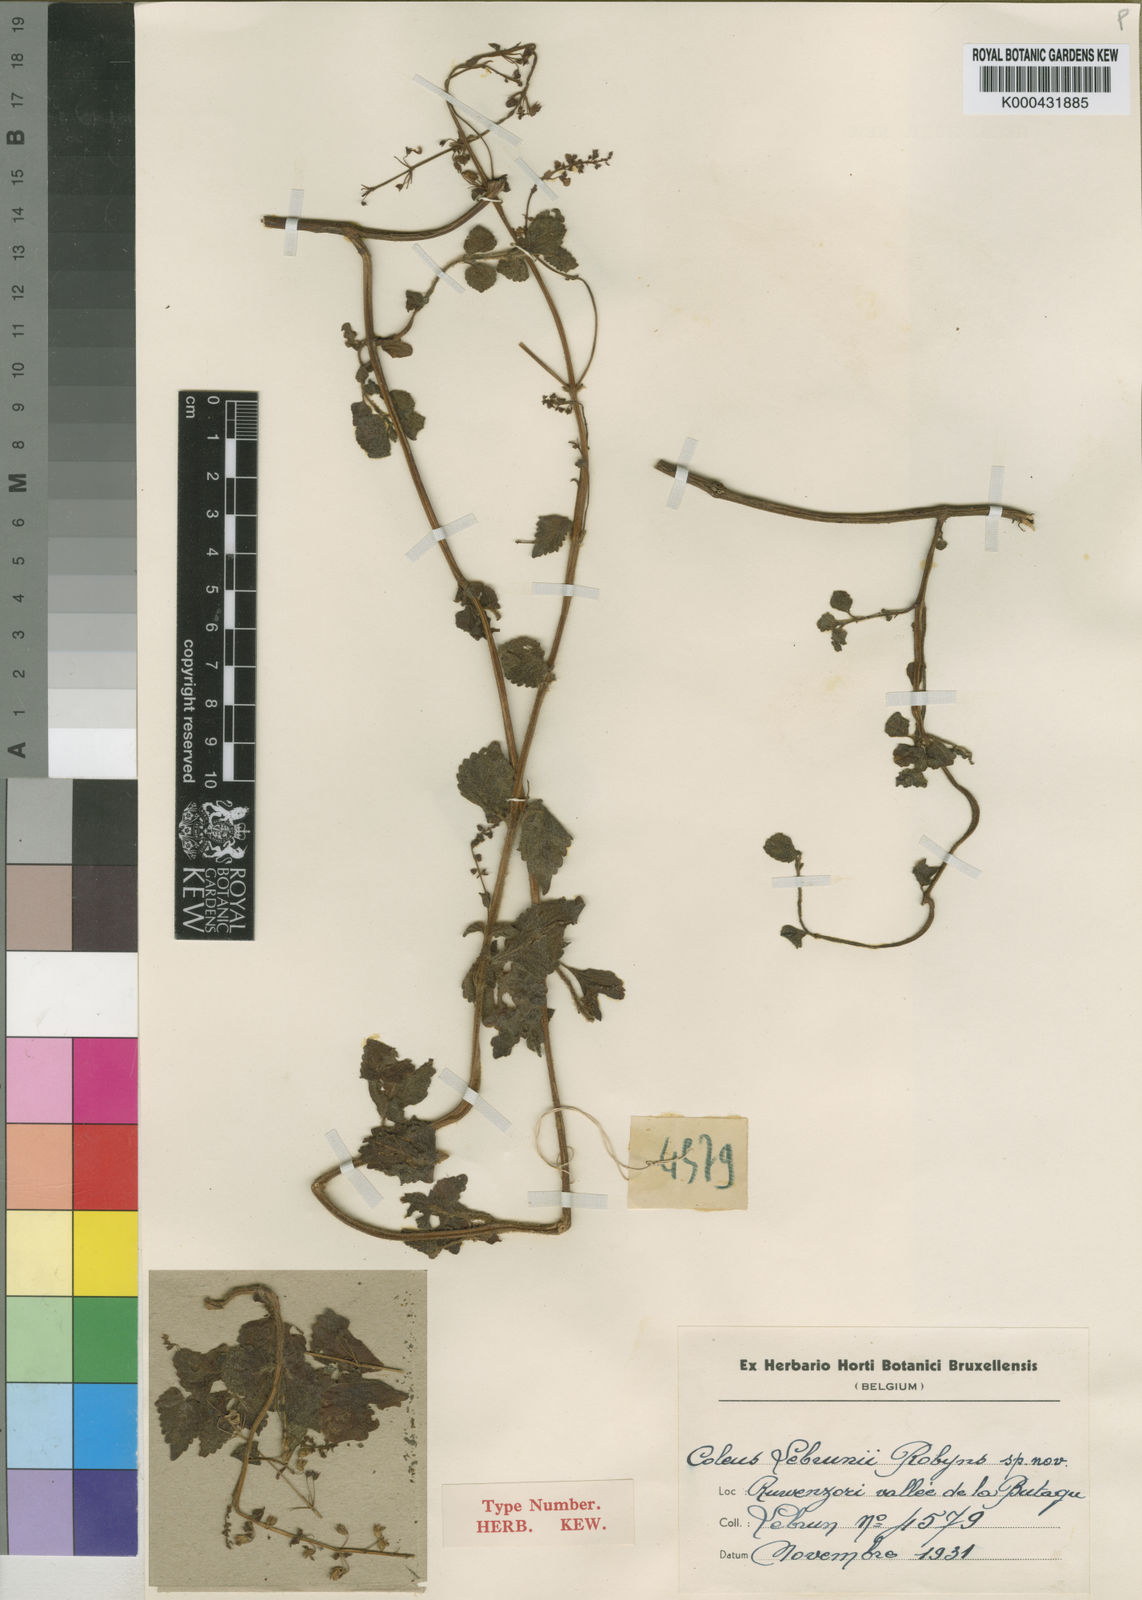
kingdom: Plantae
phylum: Tracheophyta
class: Magnoliopsida
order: Lamiales
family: Lamiaceae
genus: Coleus
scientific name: Coleus alpinus
